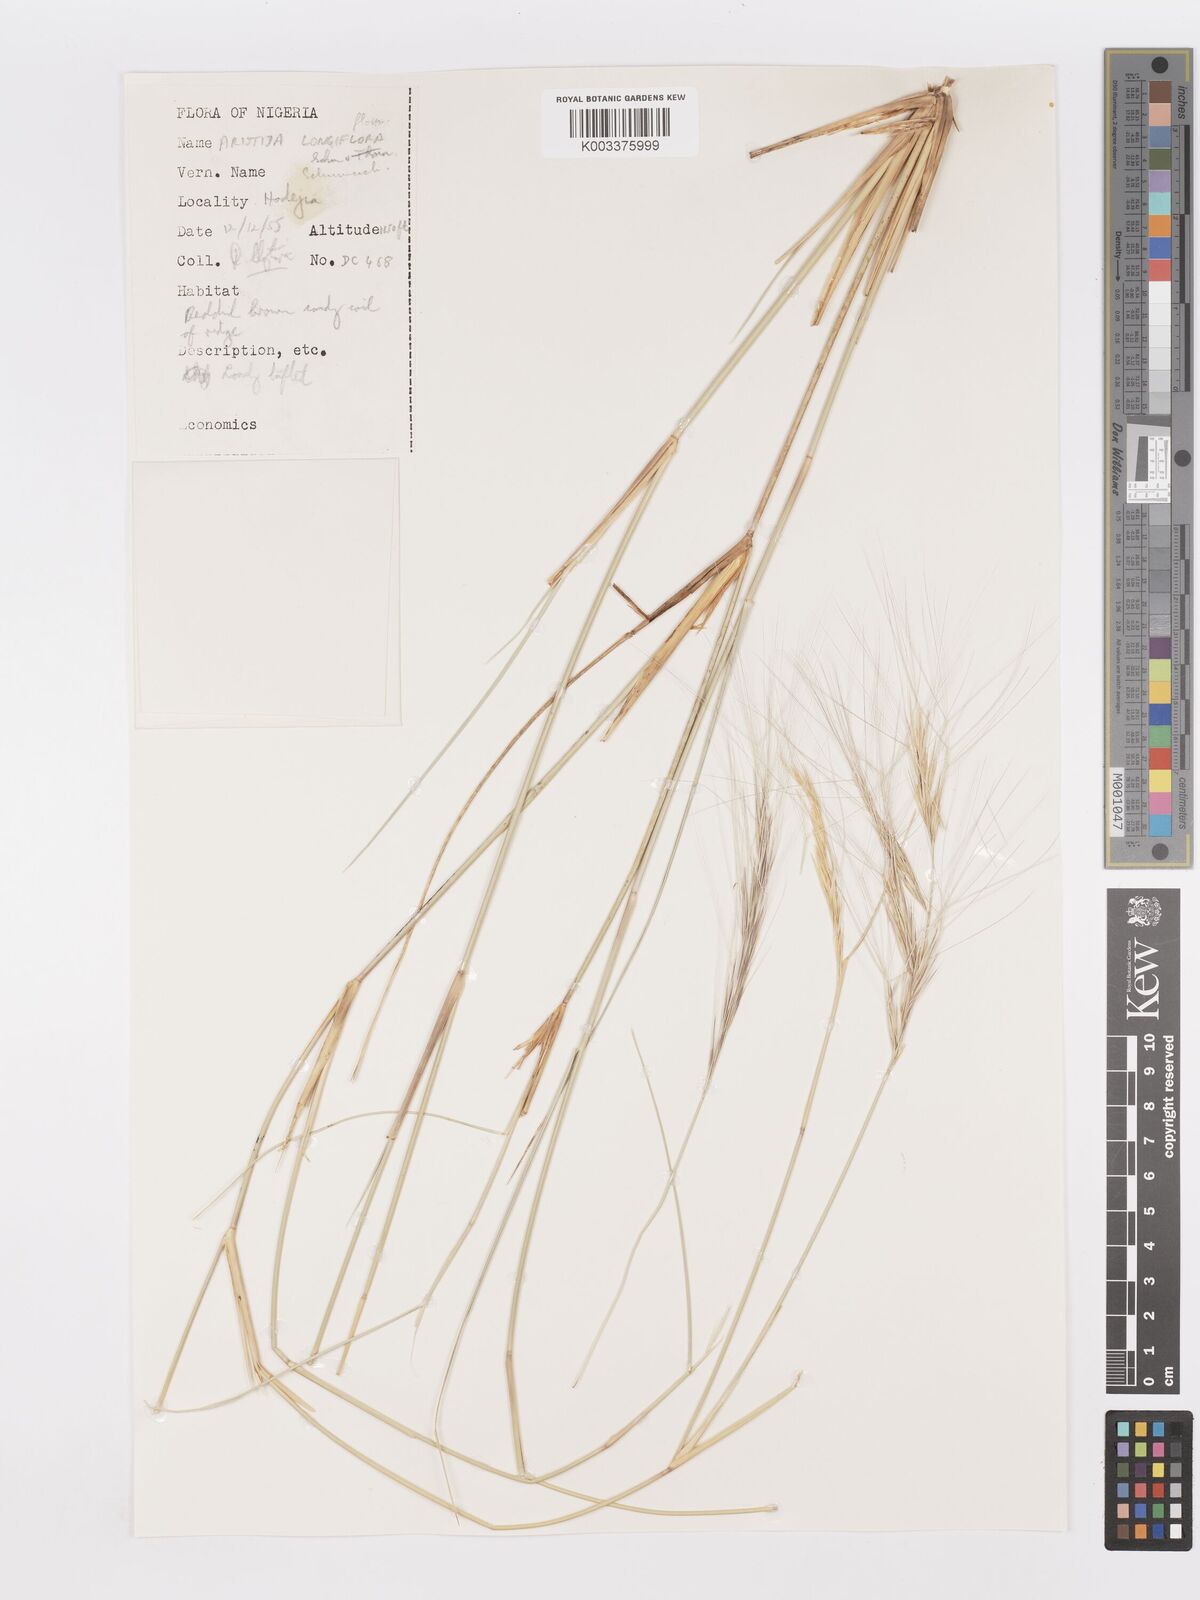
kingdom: Plantae
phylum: Tracheophyta
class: Liliopsida
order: Poales
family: Poaceae
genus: Aristida
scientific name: Aristida sieberiana
